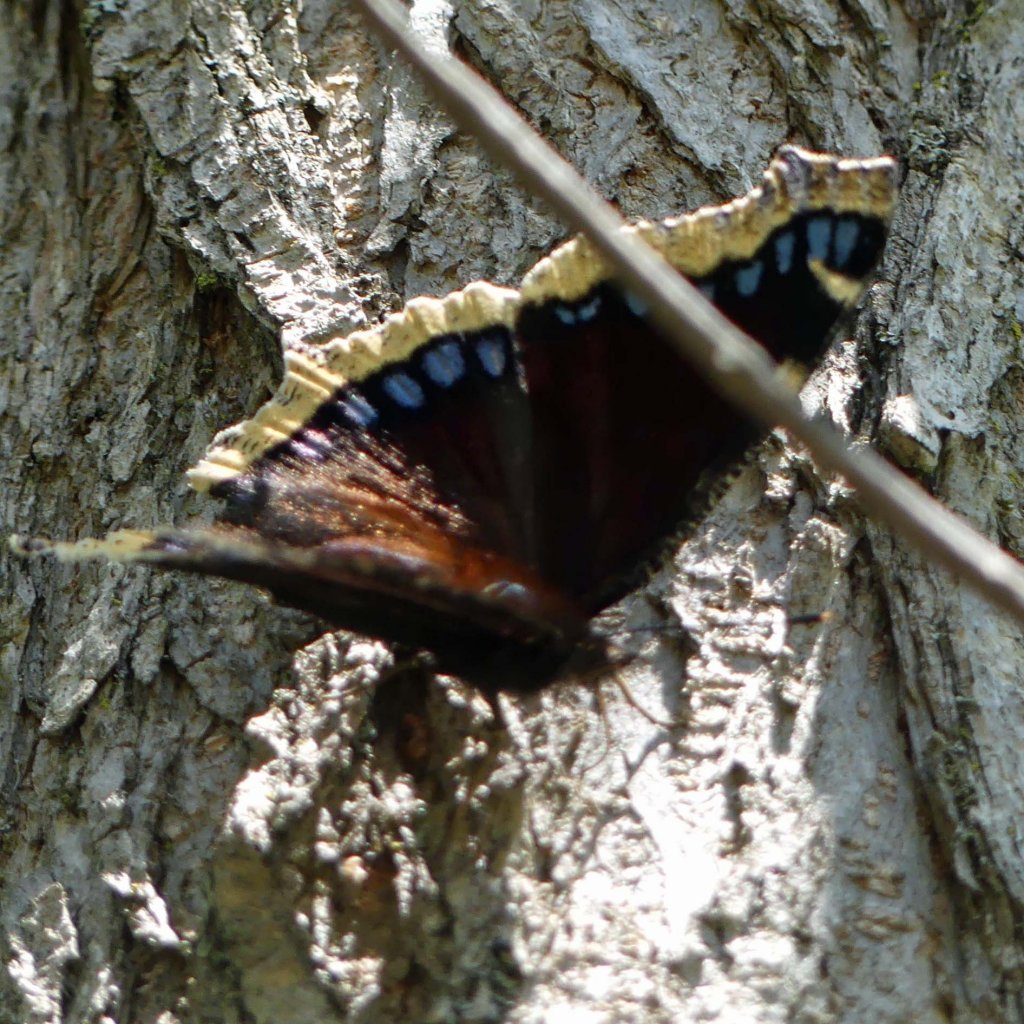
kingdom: Animalia
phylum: Arthropoda
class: Insecta
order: Lepidoptera
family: Nymphalidae
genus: Nymphalis
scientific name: Nymphalis antiopa
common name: Mourning Cloak
